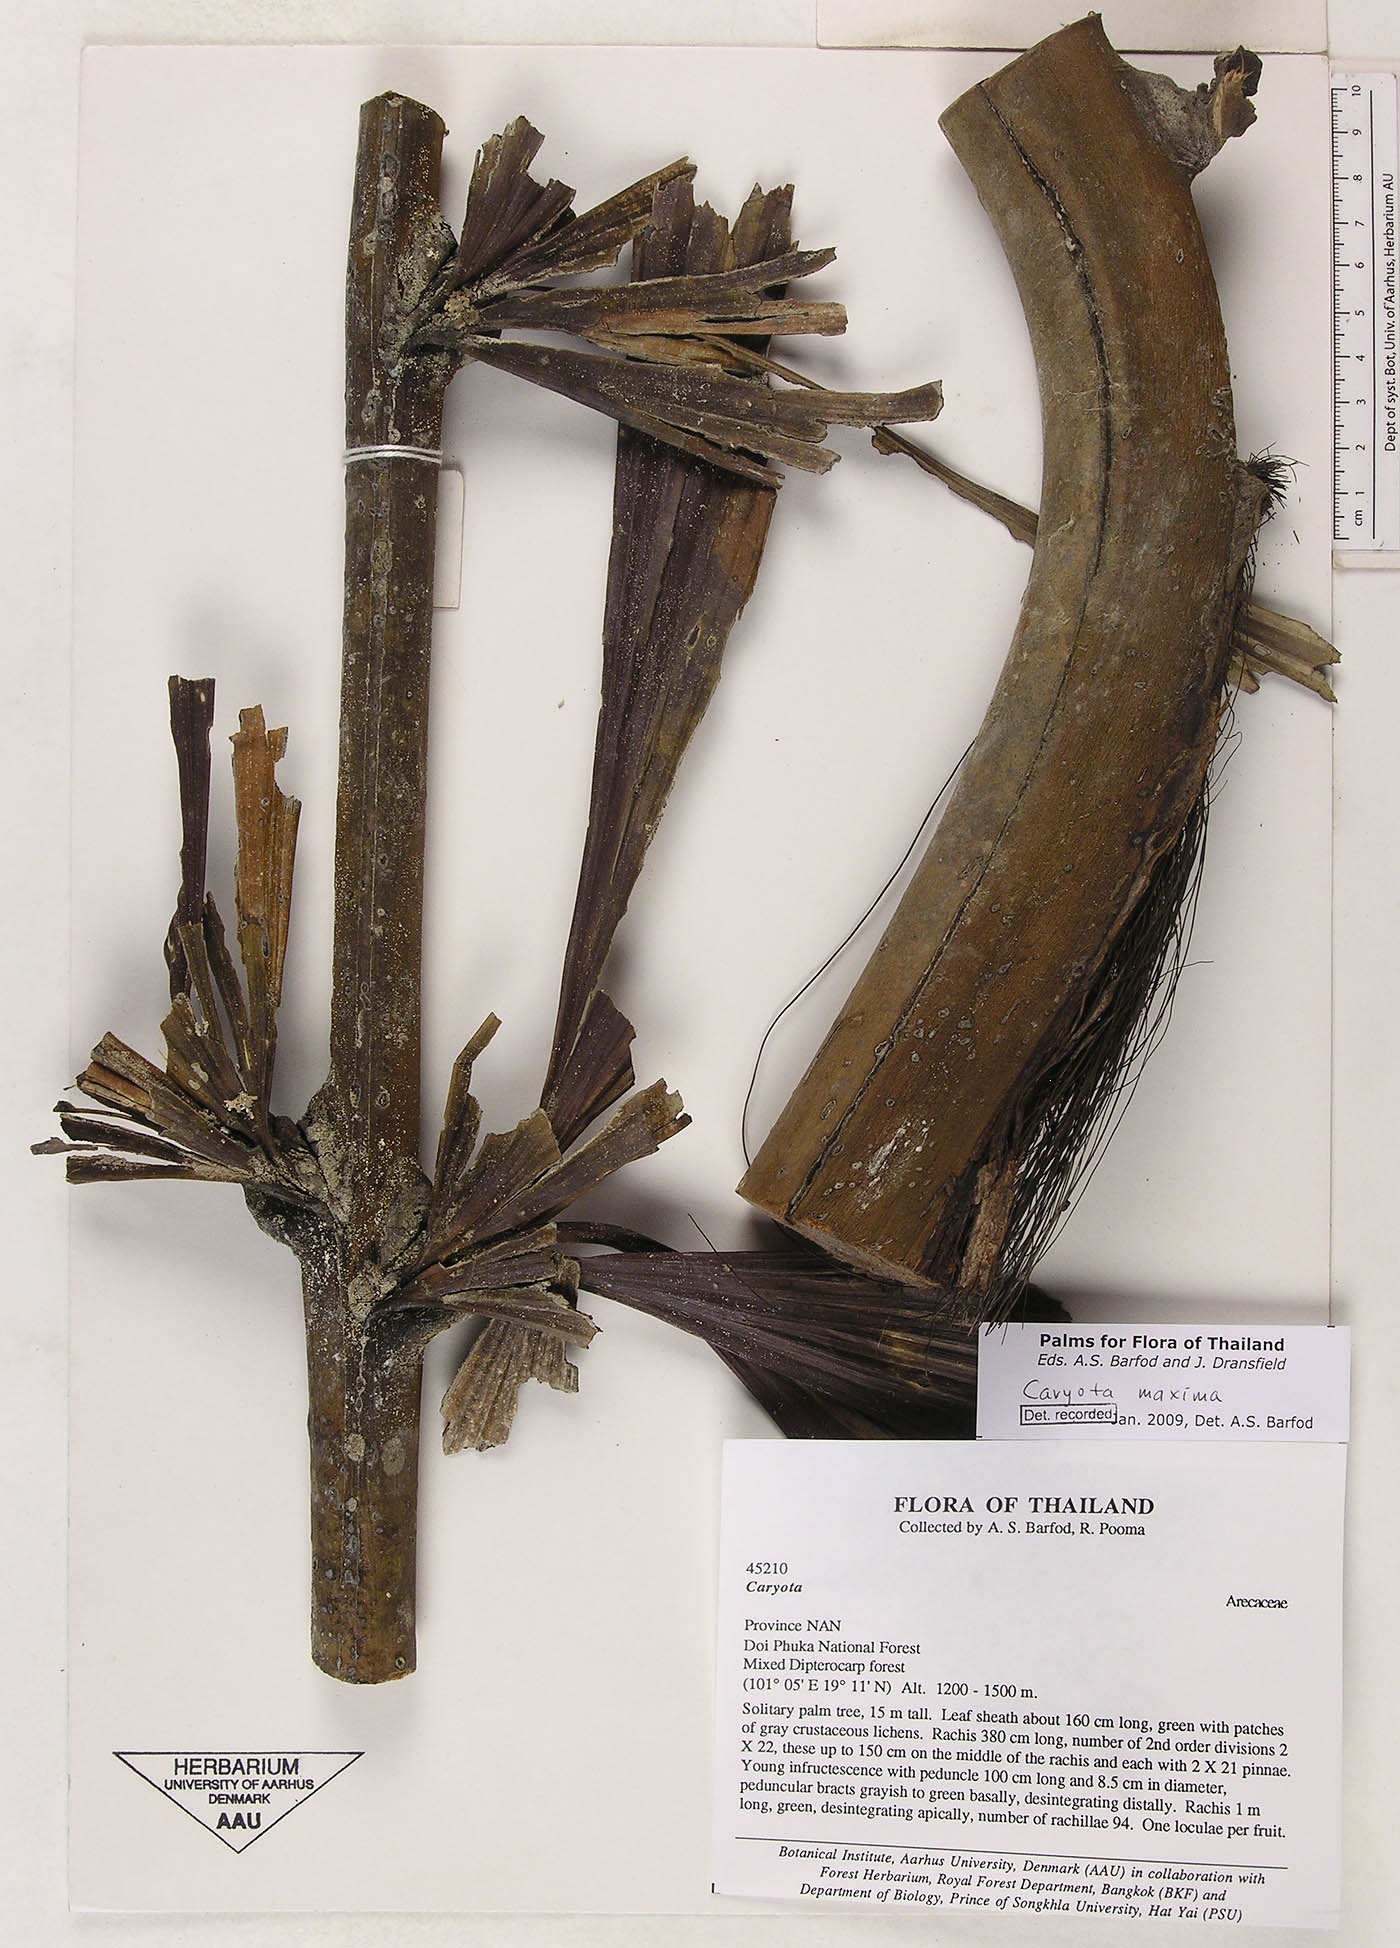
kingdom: Plantae
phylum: Tracheophyta
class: Liliopsida
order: Arecales
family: Arecaceae
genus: Caryota
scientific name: Caryota maxima
